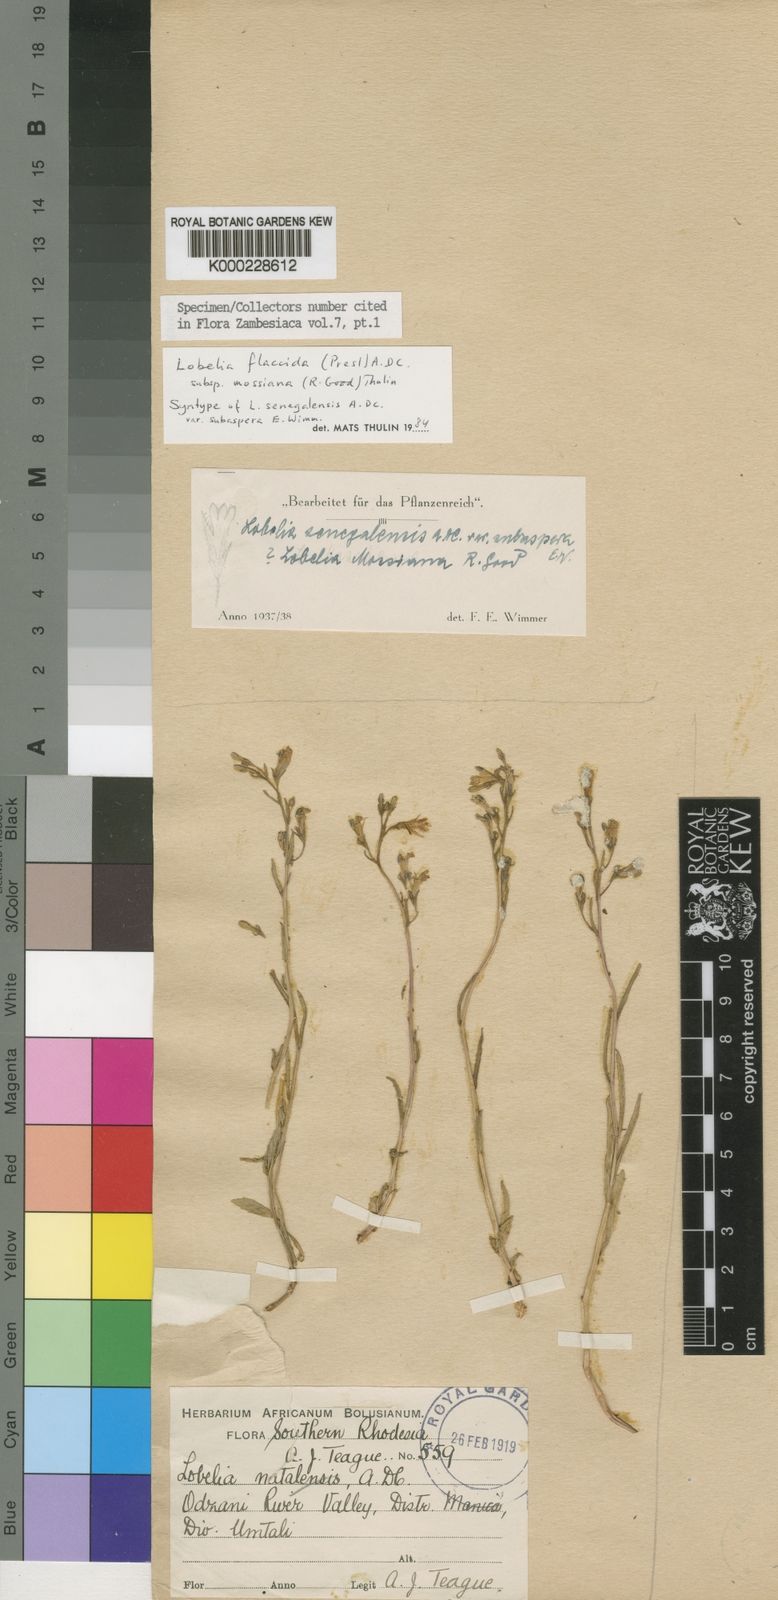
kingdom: Plantae
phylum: Tracheophyta
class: Magnoliopsida
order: Asterales
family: Campanulaceae
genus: Lobelia
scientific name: Lobelia flaccida
